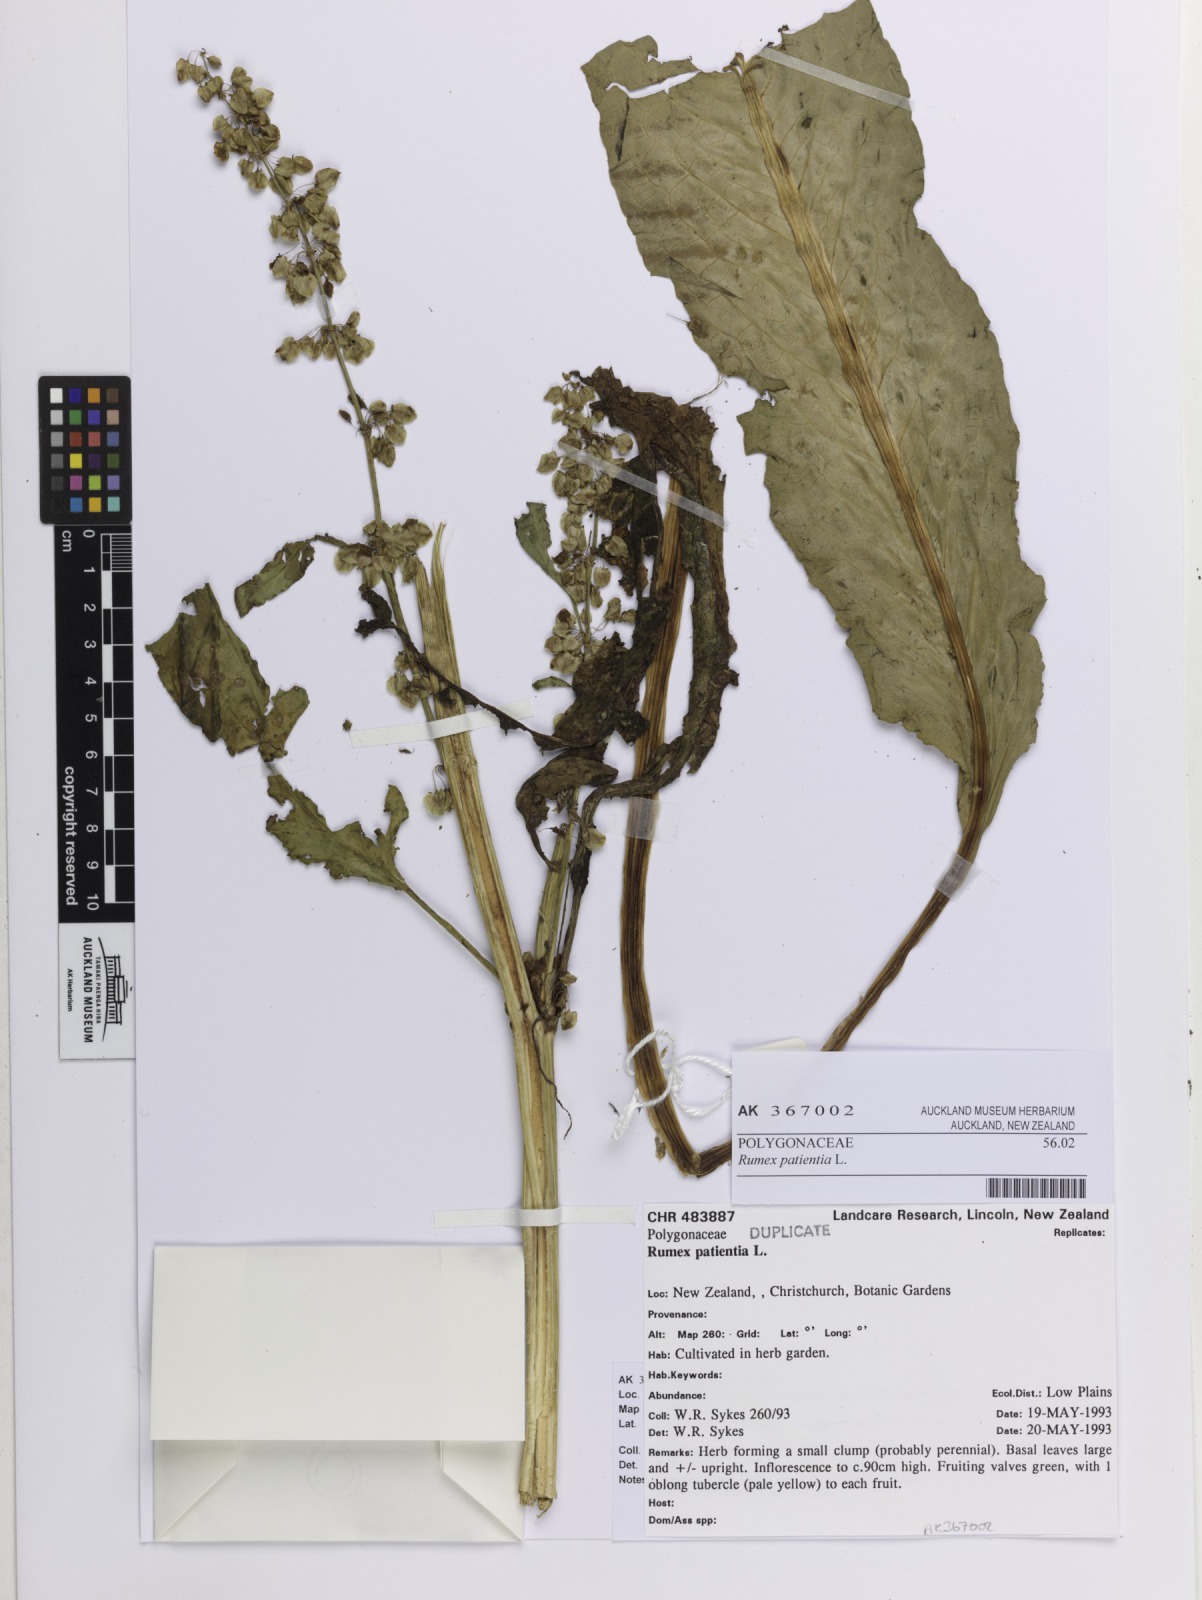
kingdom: Plantae
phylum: Tracheophyta
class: Magnoliopsida
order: Caryophyllales
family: Polygonaceae
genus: Rumex
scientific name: Rumex patientia
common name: Patience dock
